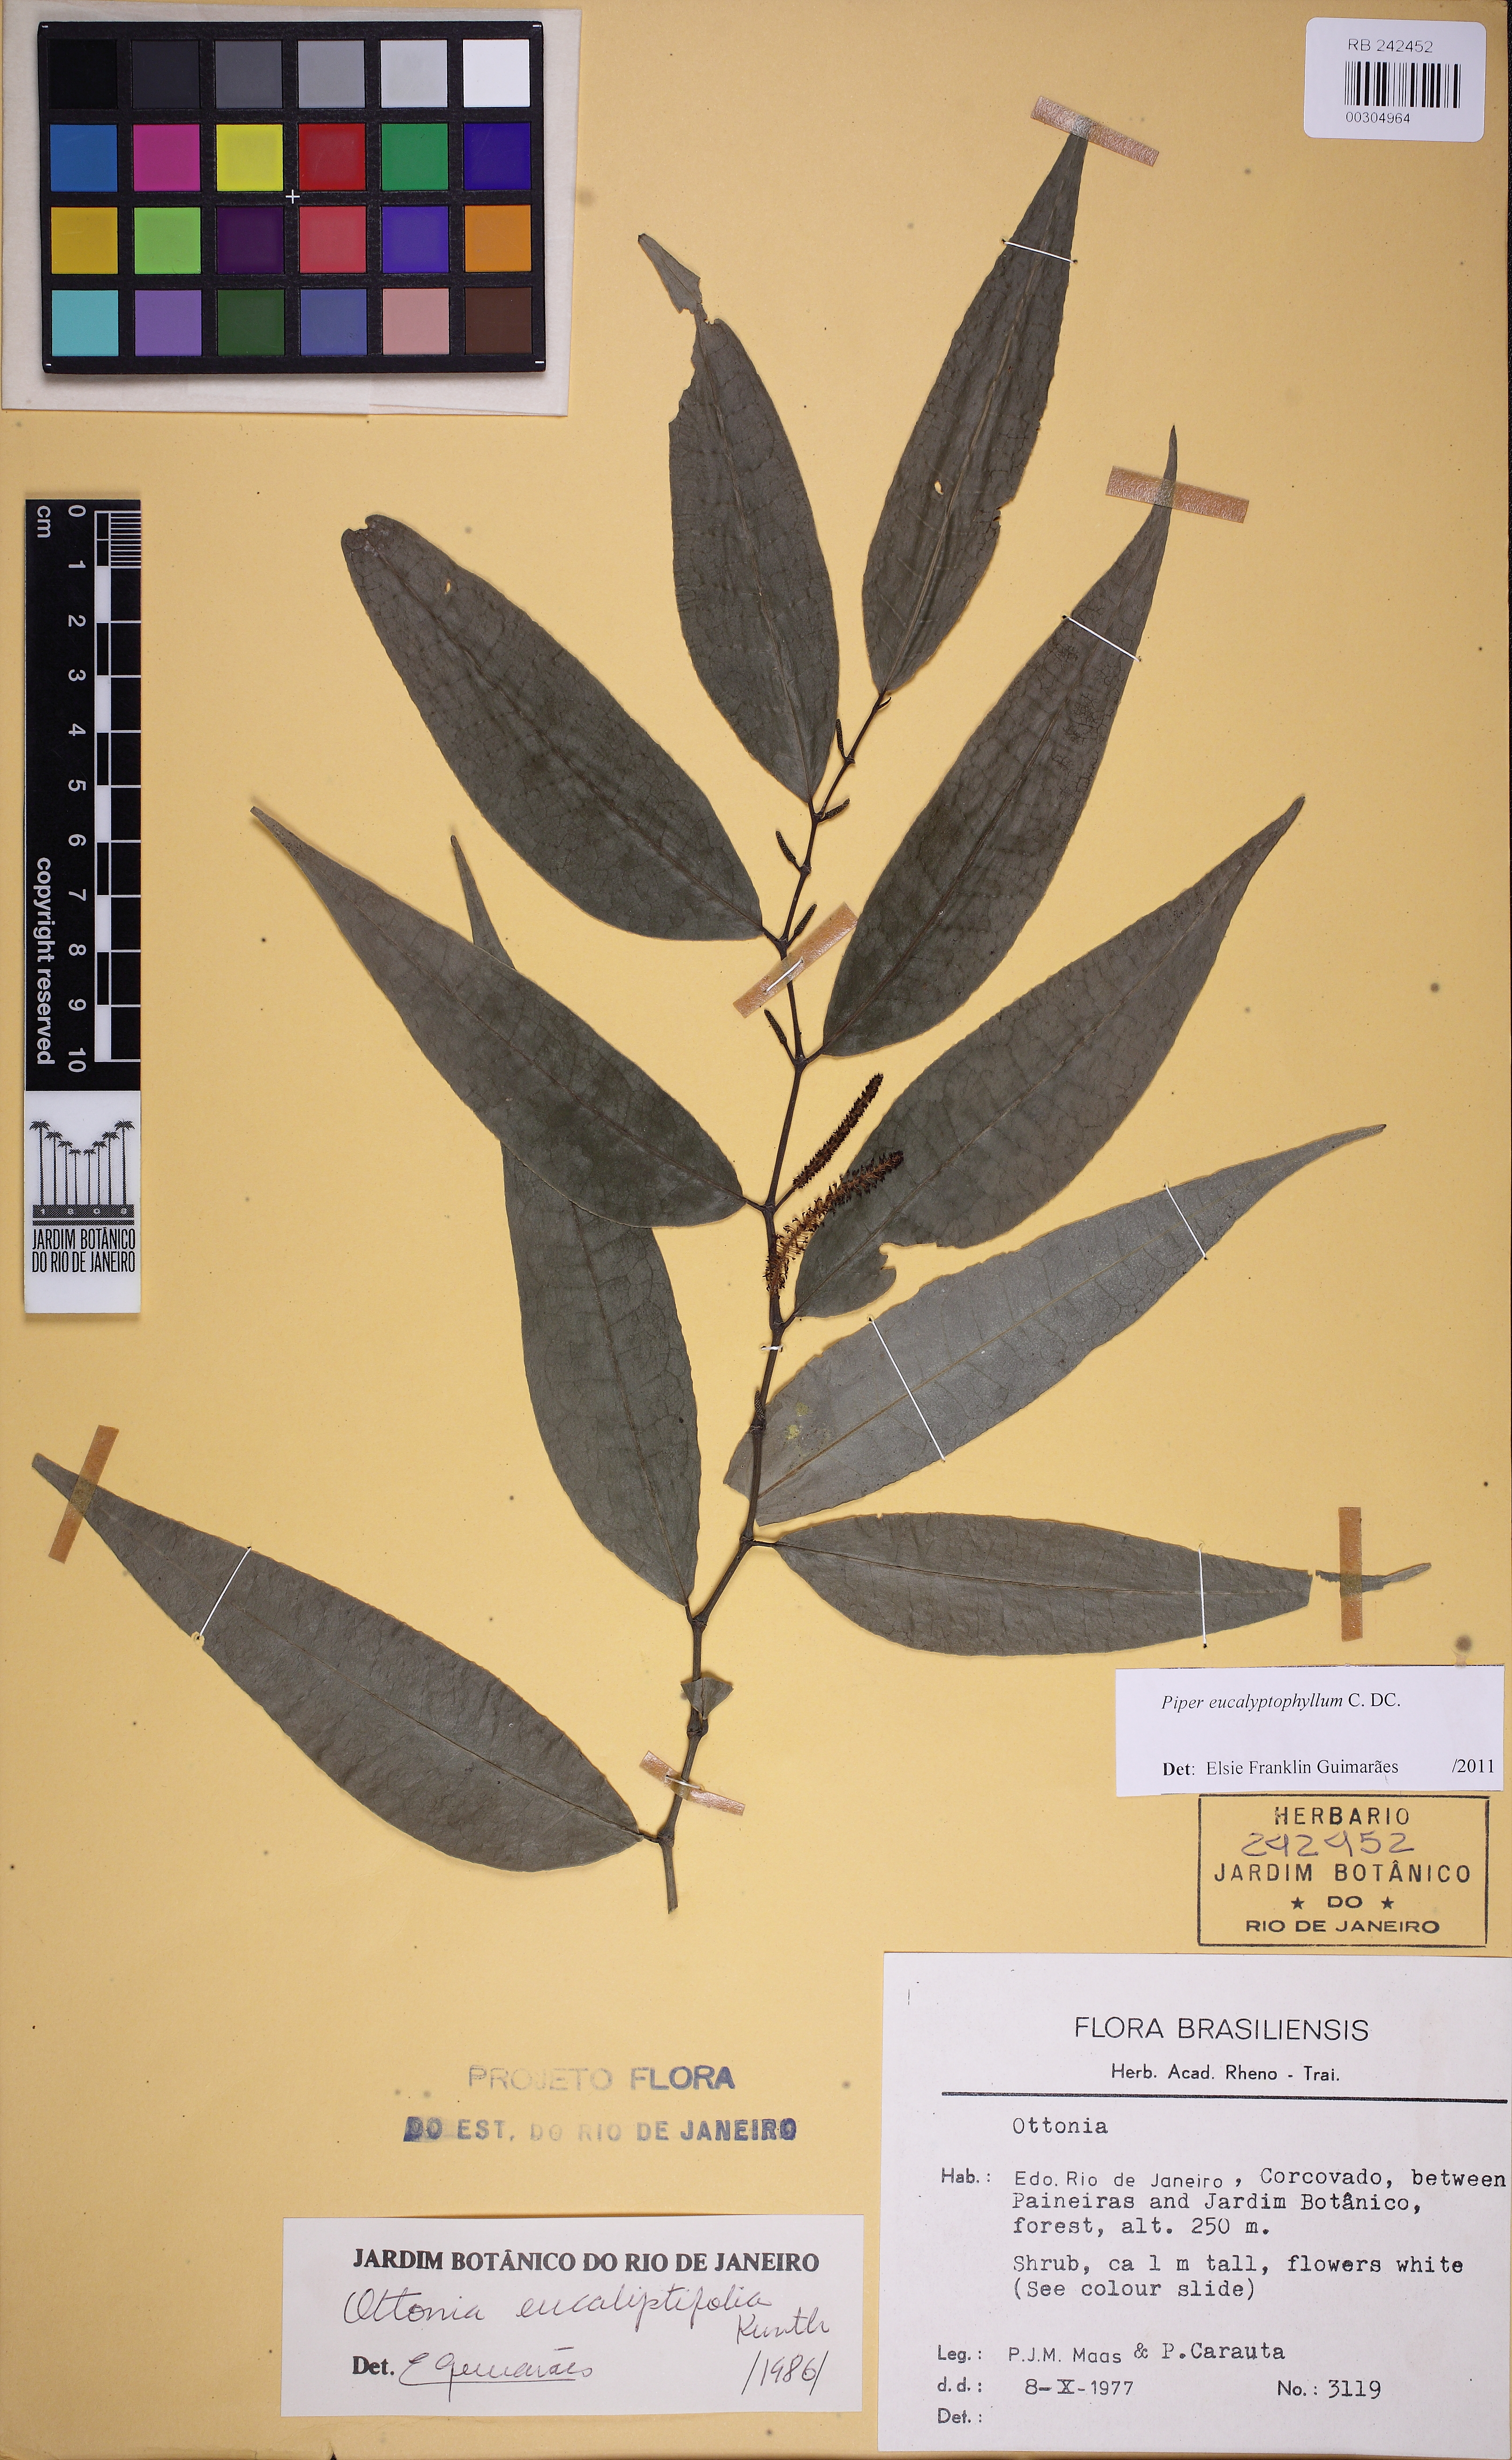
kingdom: Plantae
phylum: Tracheophyta
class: Magnoliopsida
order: Piperales
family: Piperaceae
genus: Piper
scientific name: Piper eucalyptiphyllum
